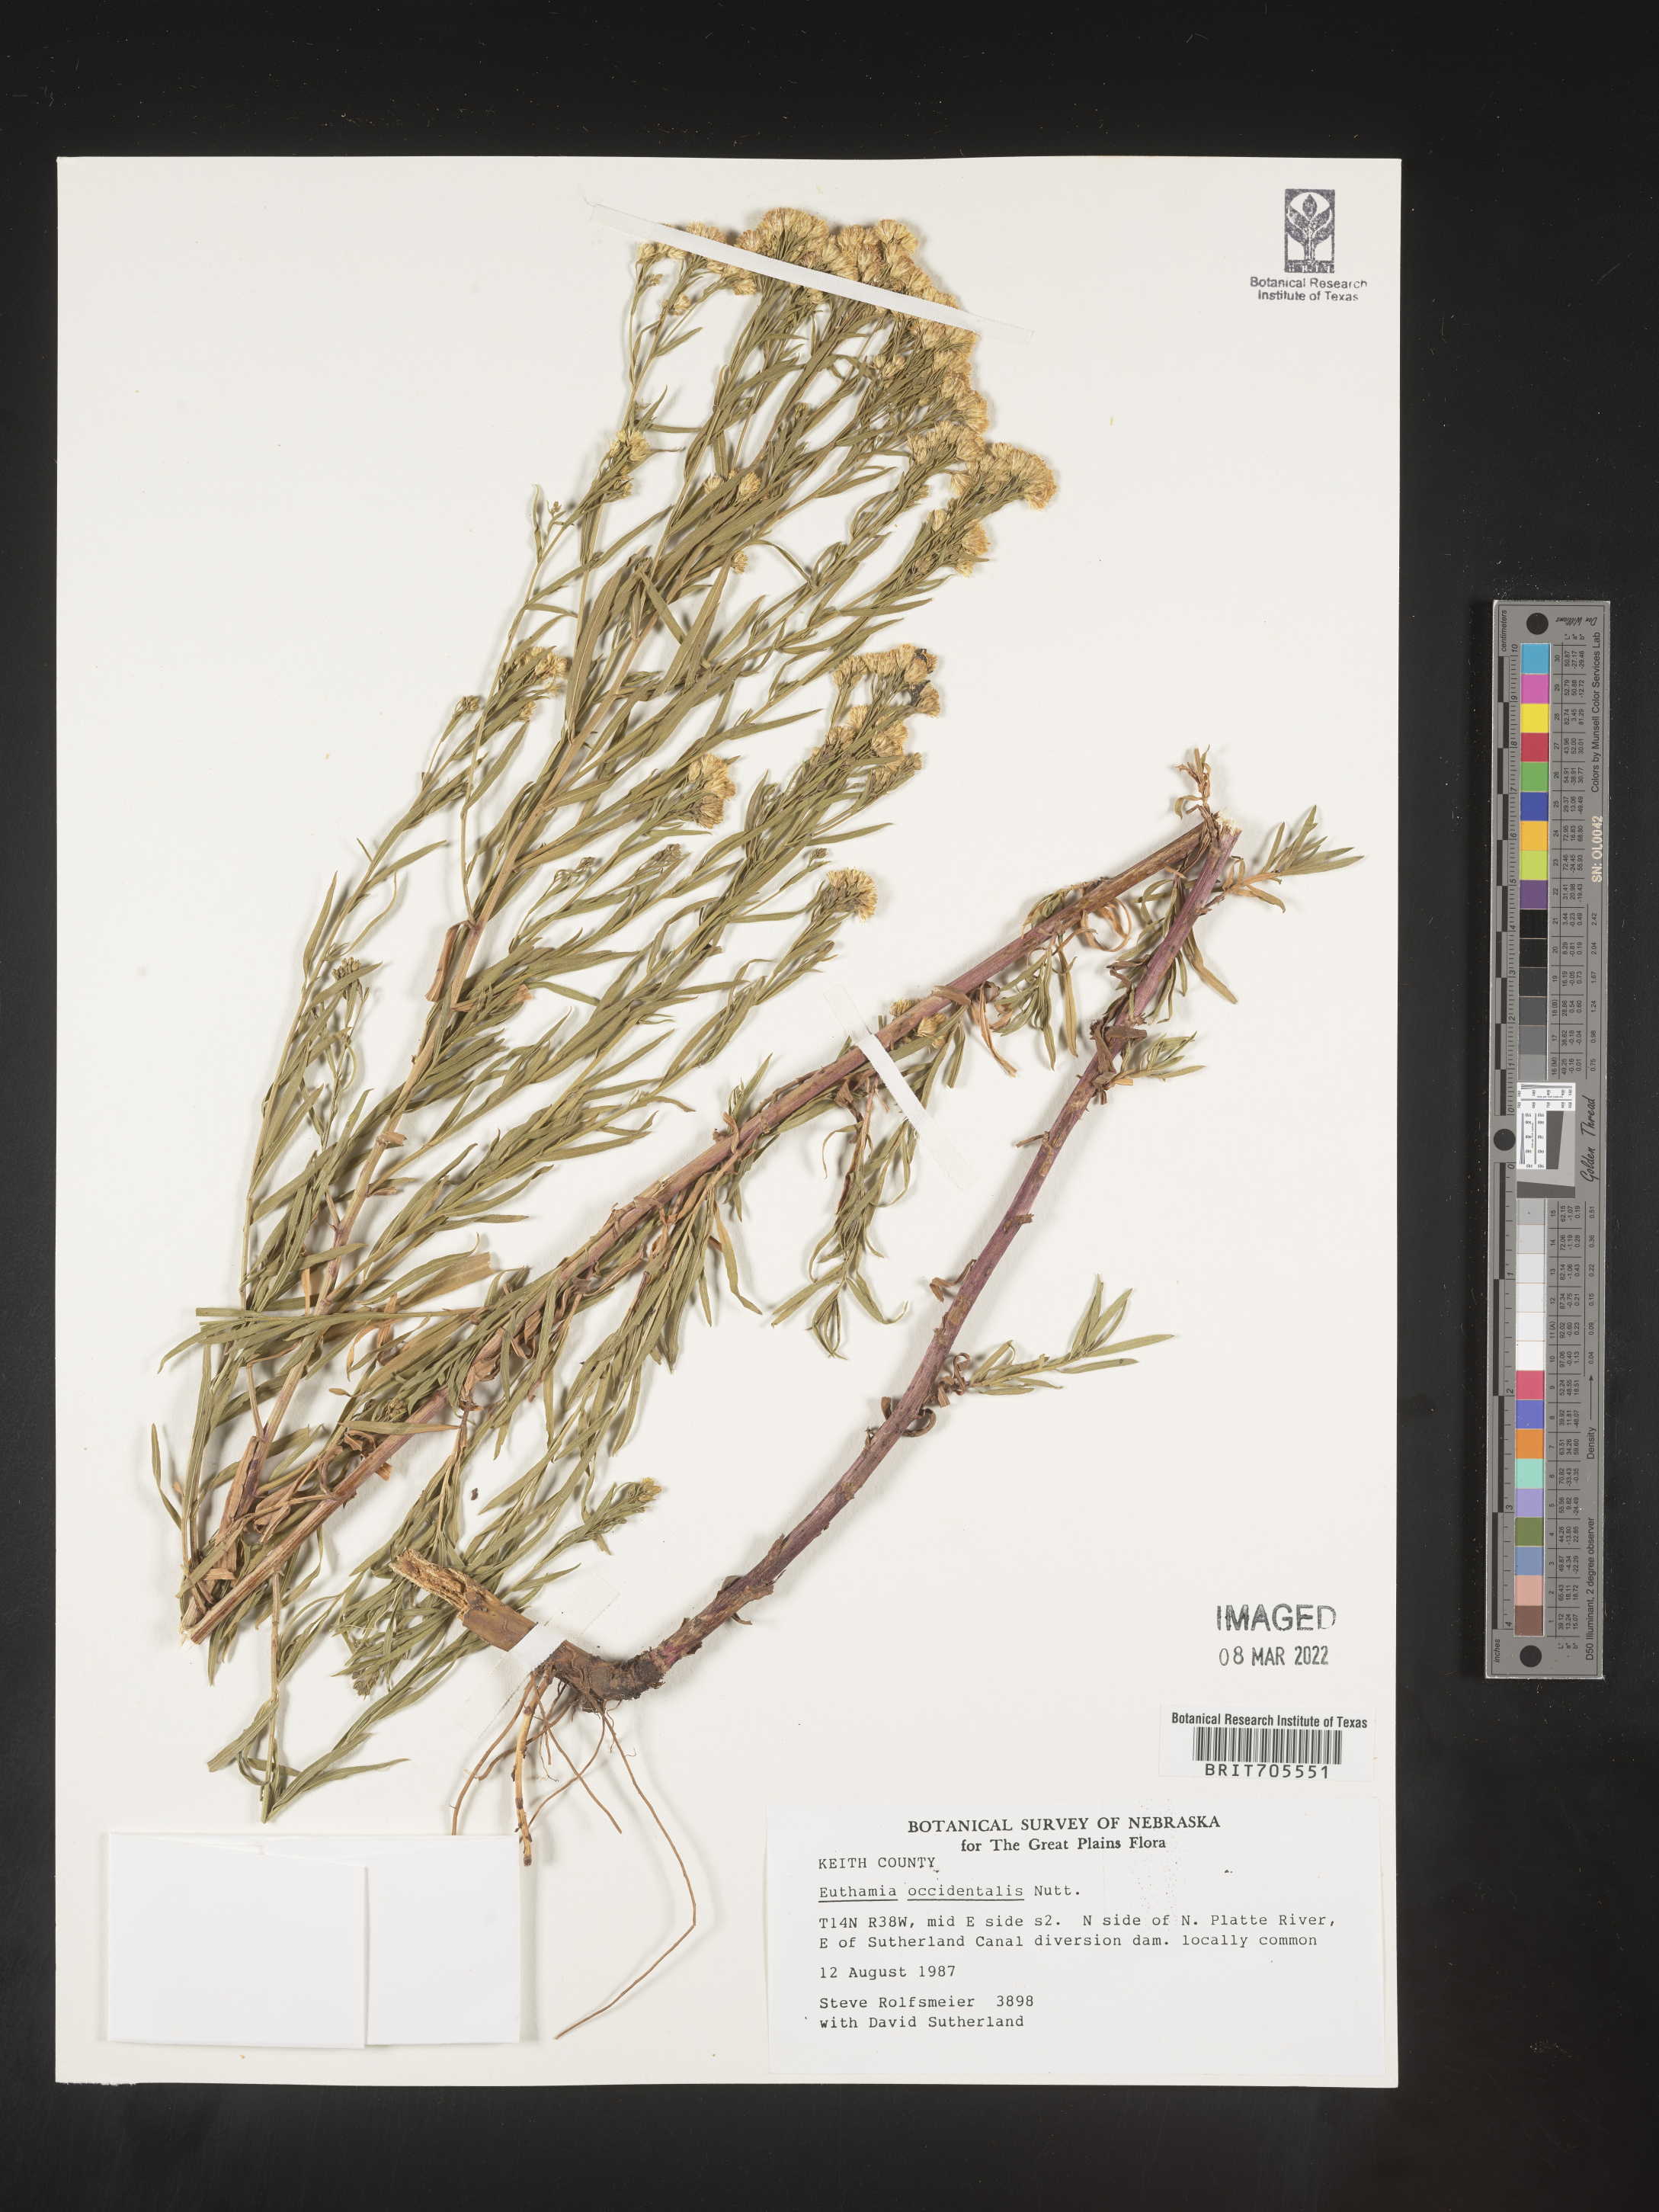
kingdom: Plantae
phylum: Tracheophyta
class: Magnoliopsida
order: Asterales
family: Asteraceae
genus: Euthamia
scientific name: Euthamia occidentalis
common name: Western goldentop
